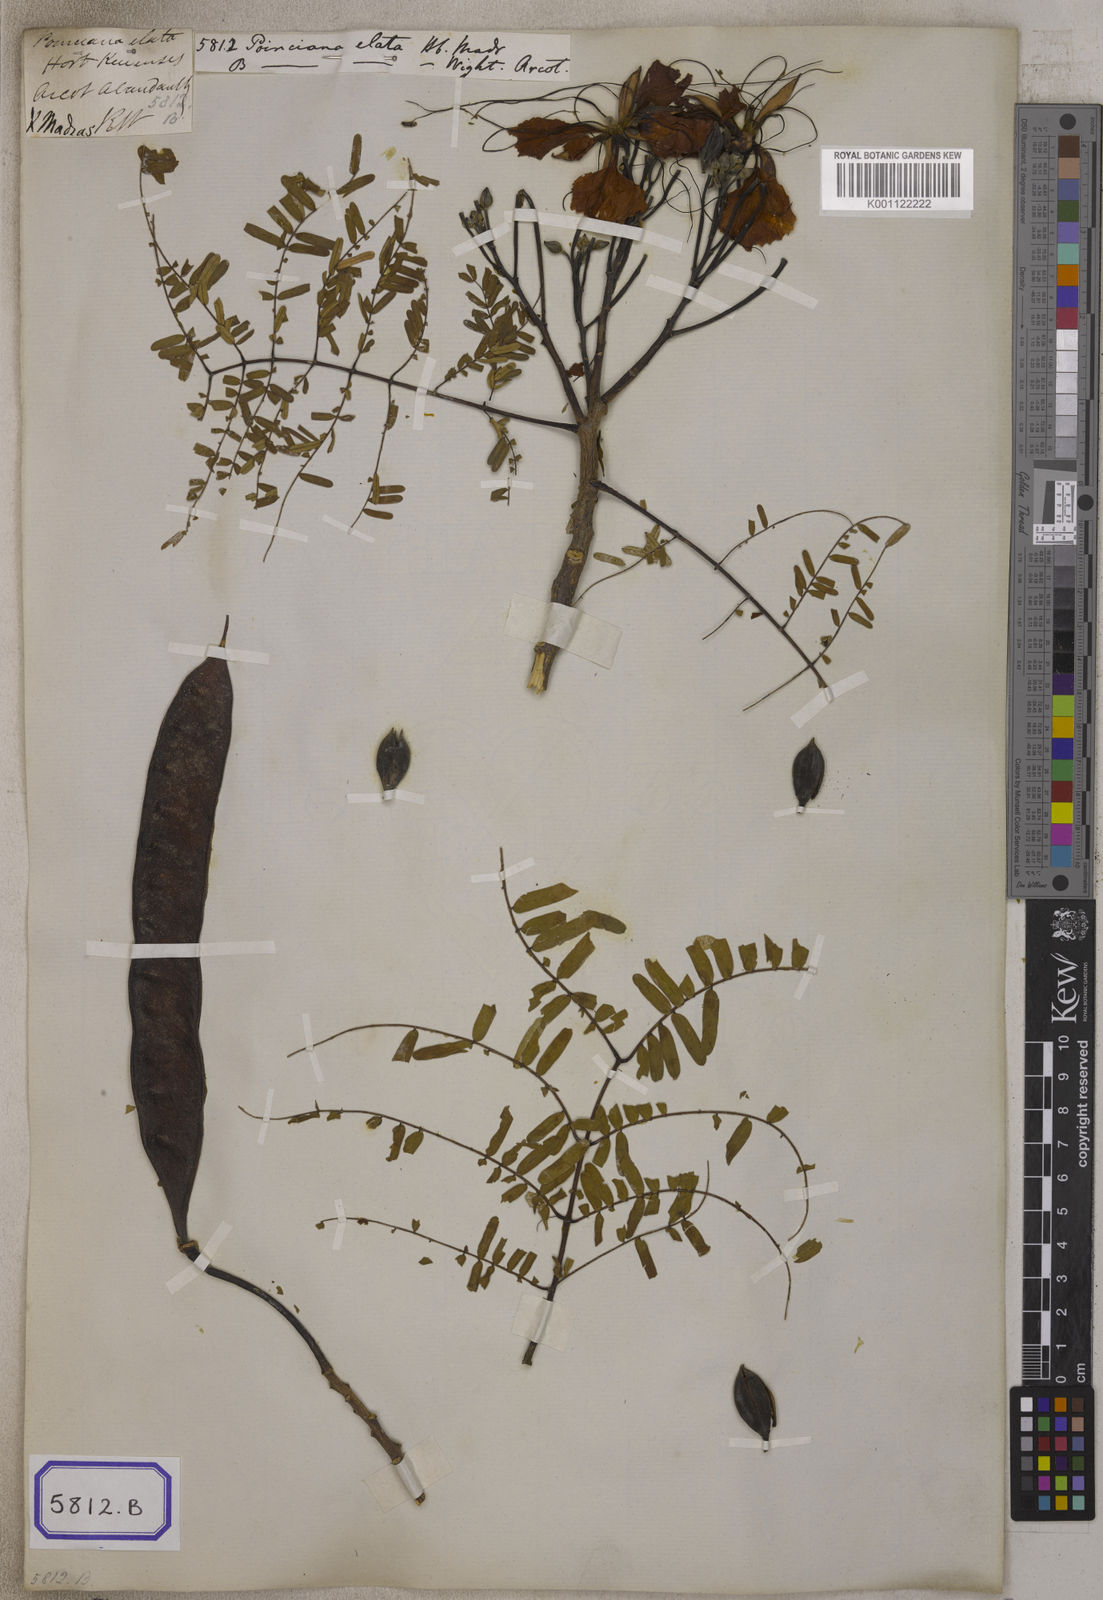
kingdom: Plantae
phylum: Tracheophyta
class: Magnoliopsida
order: Fabales
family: Fabaceae
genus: Delonix
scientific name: Delonix elata
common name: Creamy peacock flower
